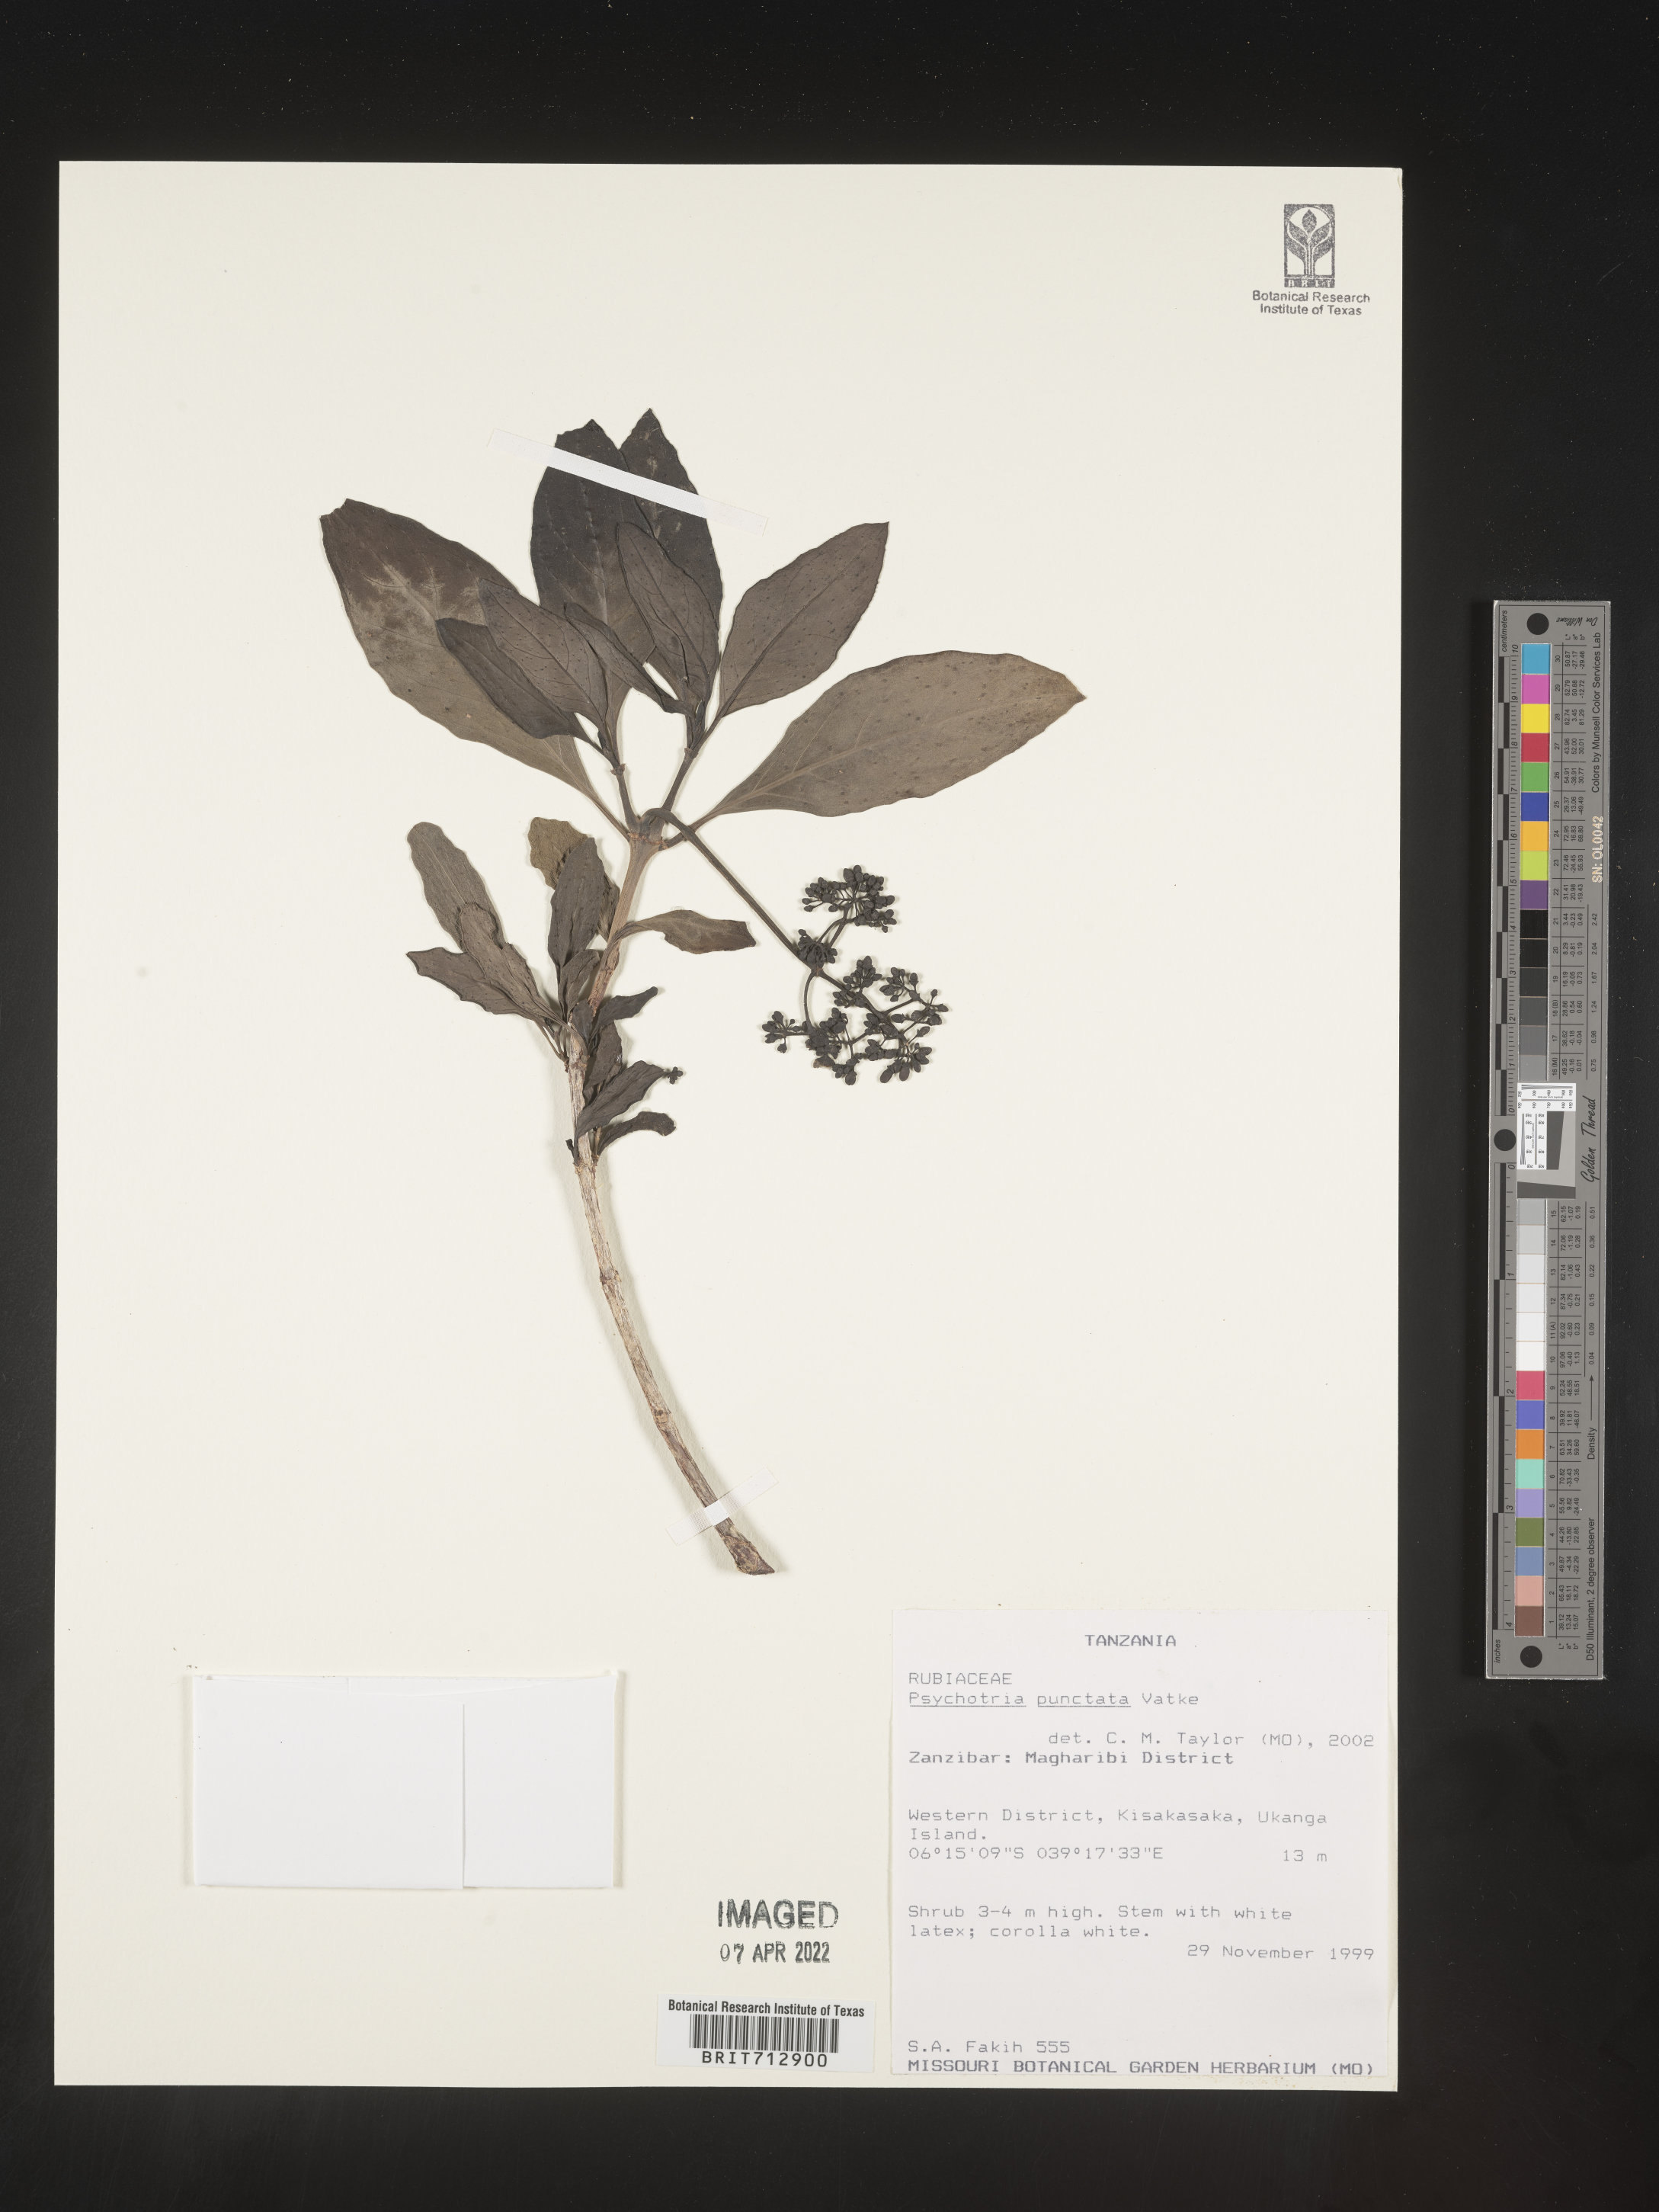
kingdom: Plantae
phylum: Tracheophyta
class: Magnoliopsida
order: Gentianales
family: Rubiaceae
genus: Psychotria
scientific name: Psychotria
